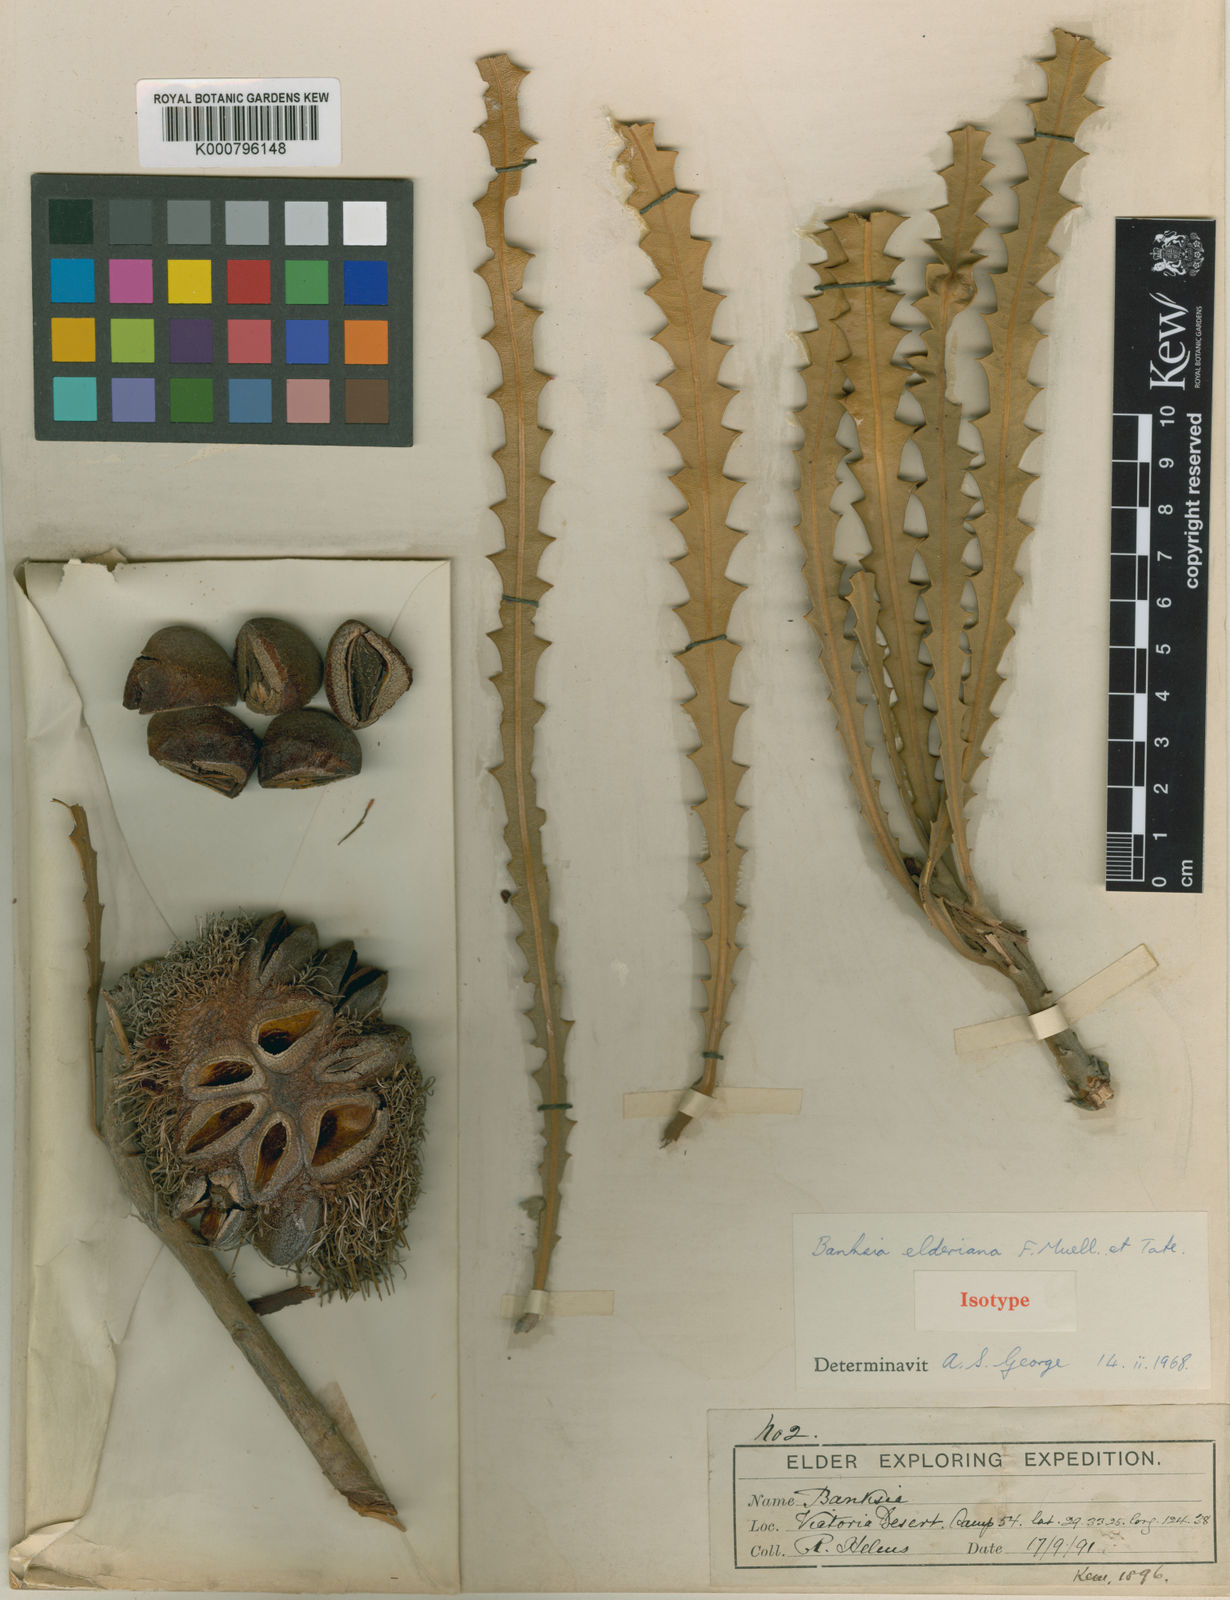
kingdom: Plantae
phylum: Tracheophyta
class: Magnoliopsida
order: Proteales
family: Proteaceae
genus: Banksia
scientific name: Banksia elderiana
